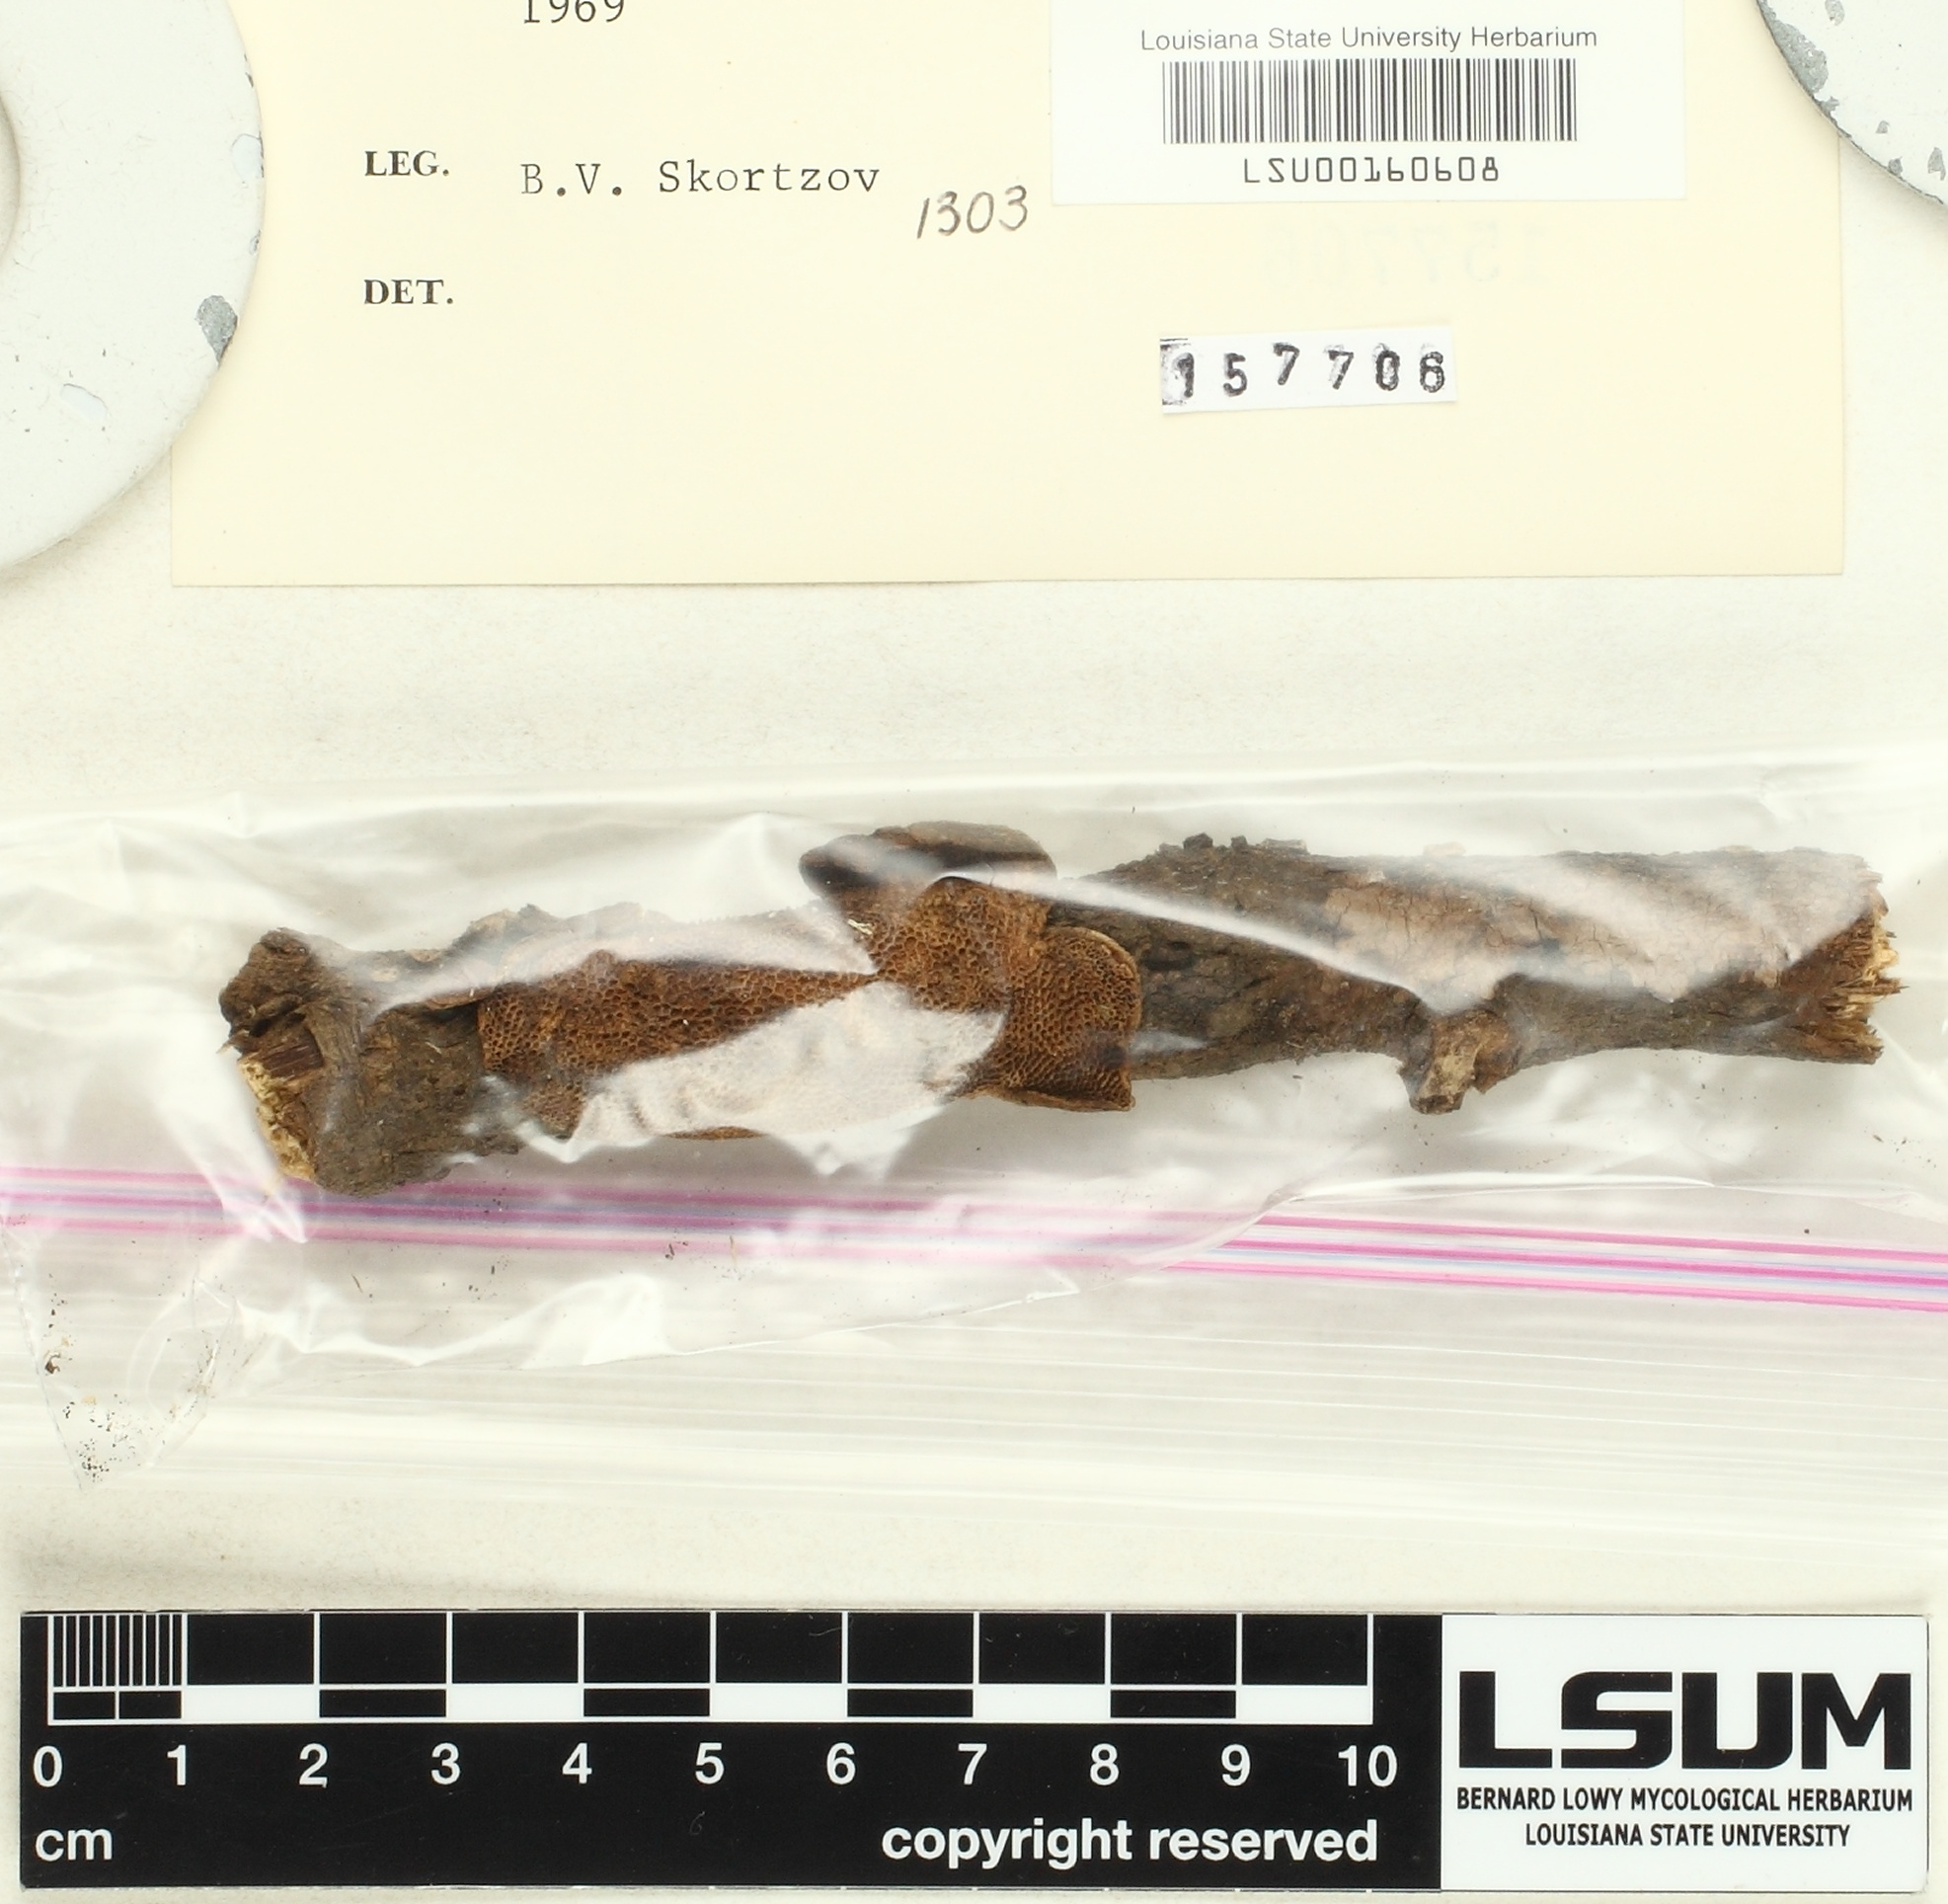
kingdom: Fungi
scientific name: Fungi
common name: Fungi
